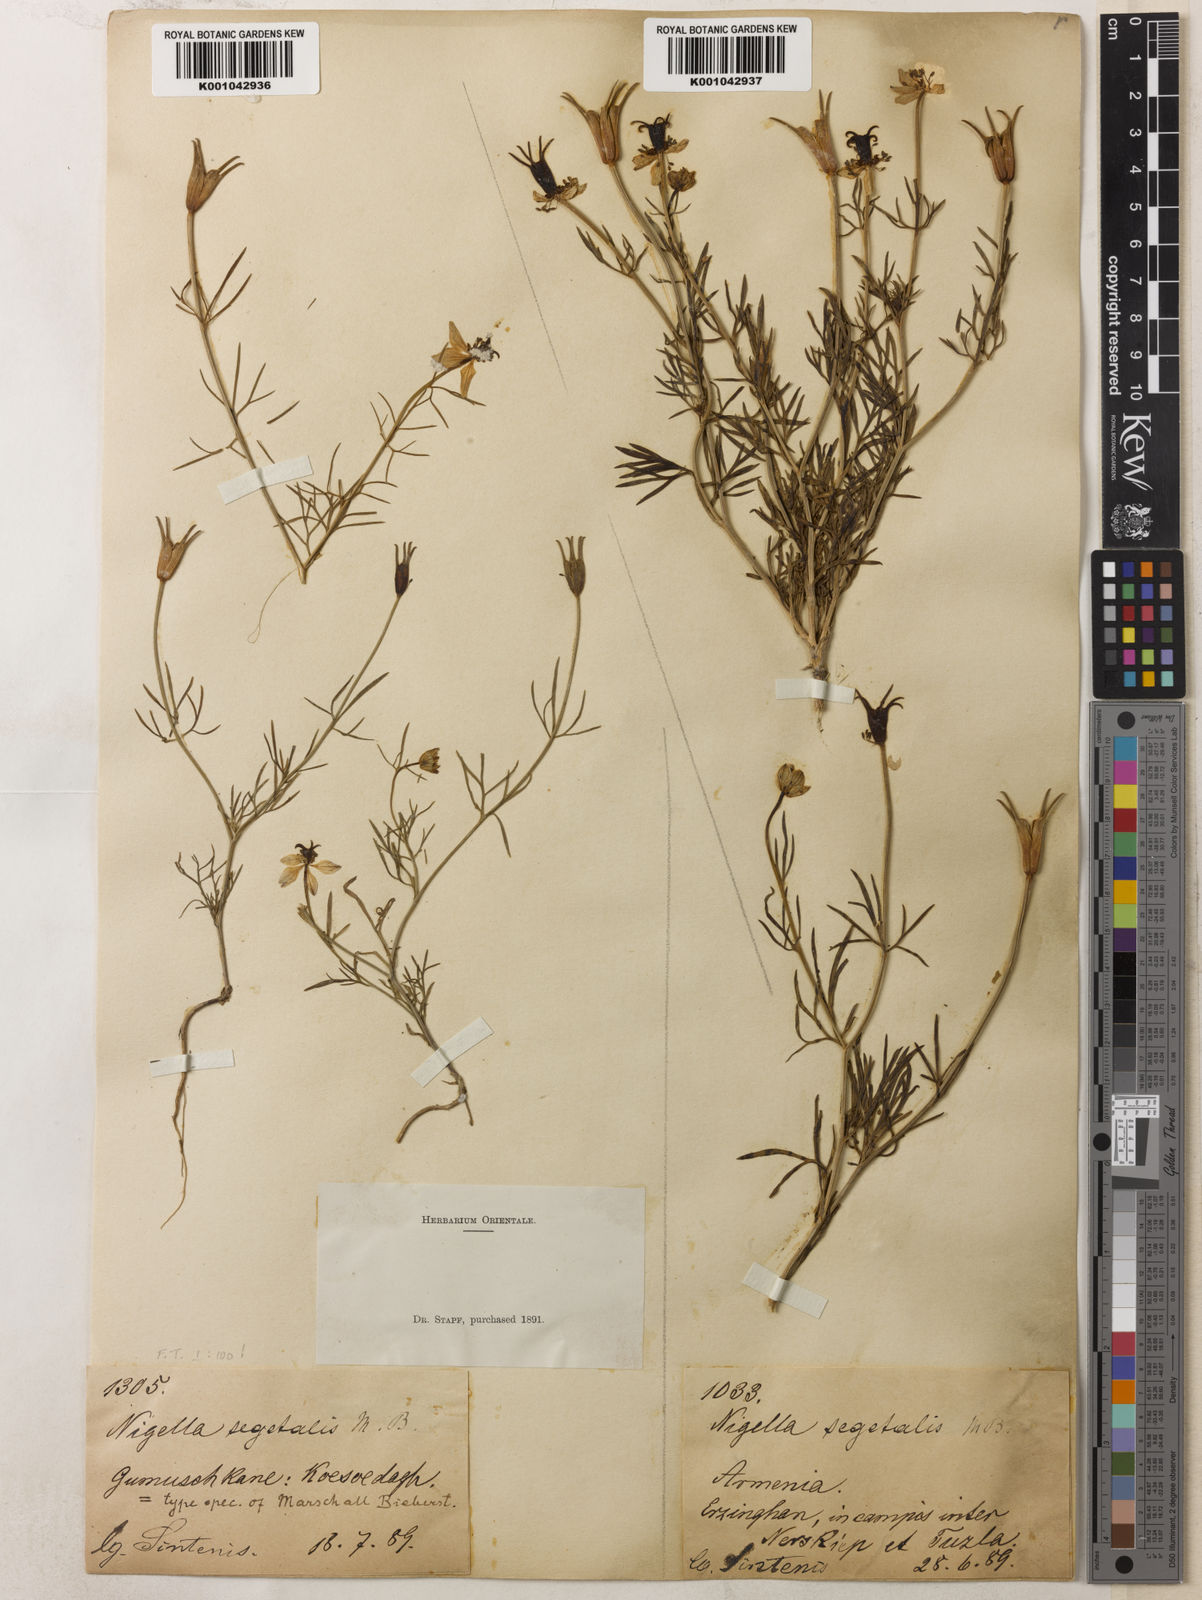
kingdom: Plantae
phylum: Tracheophyta
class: Magnoliopsida
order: Ranunculales
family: Ranunculaceae
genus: Nigella
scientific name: Nigella segetalis
